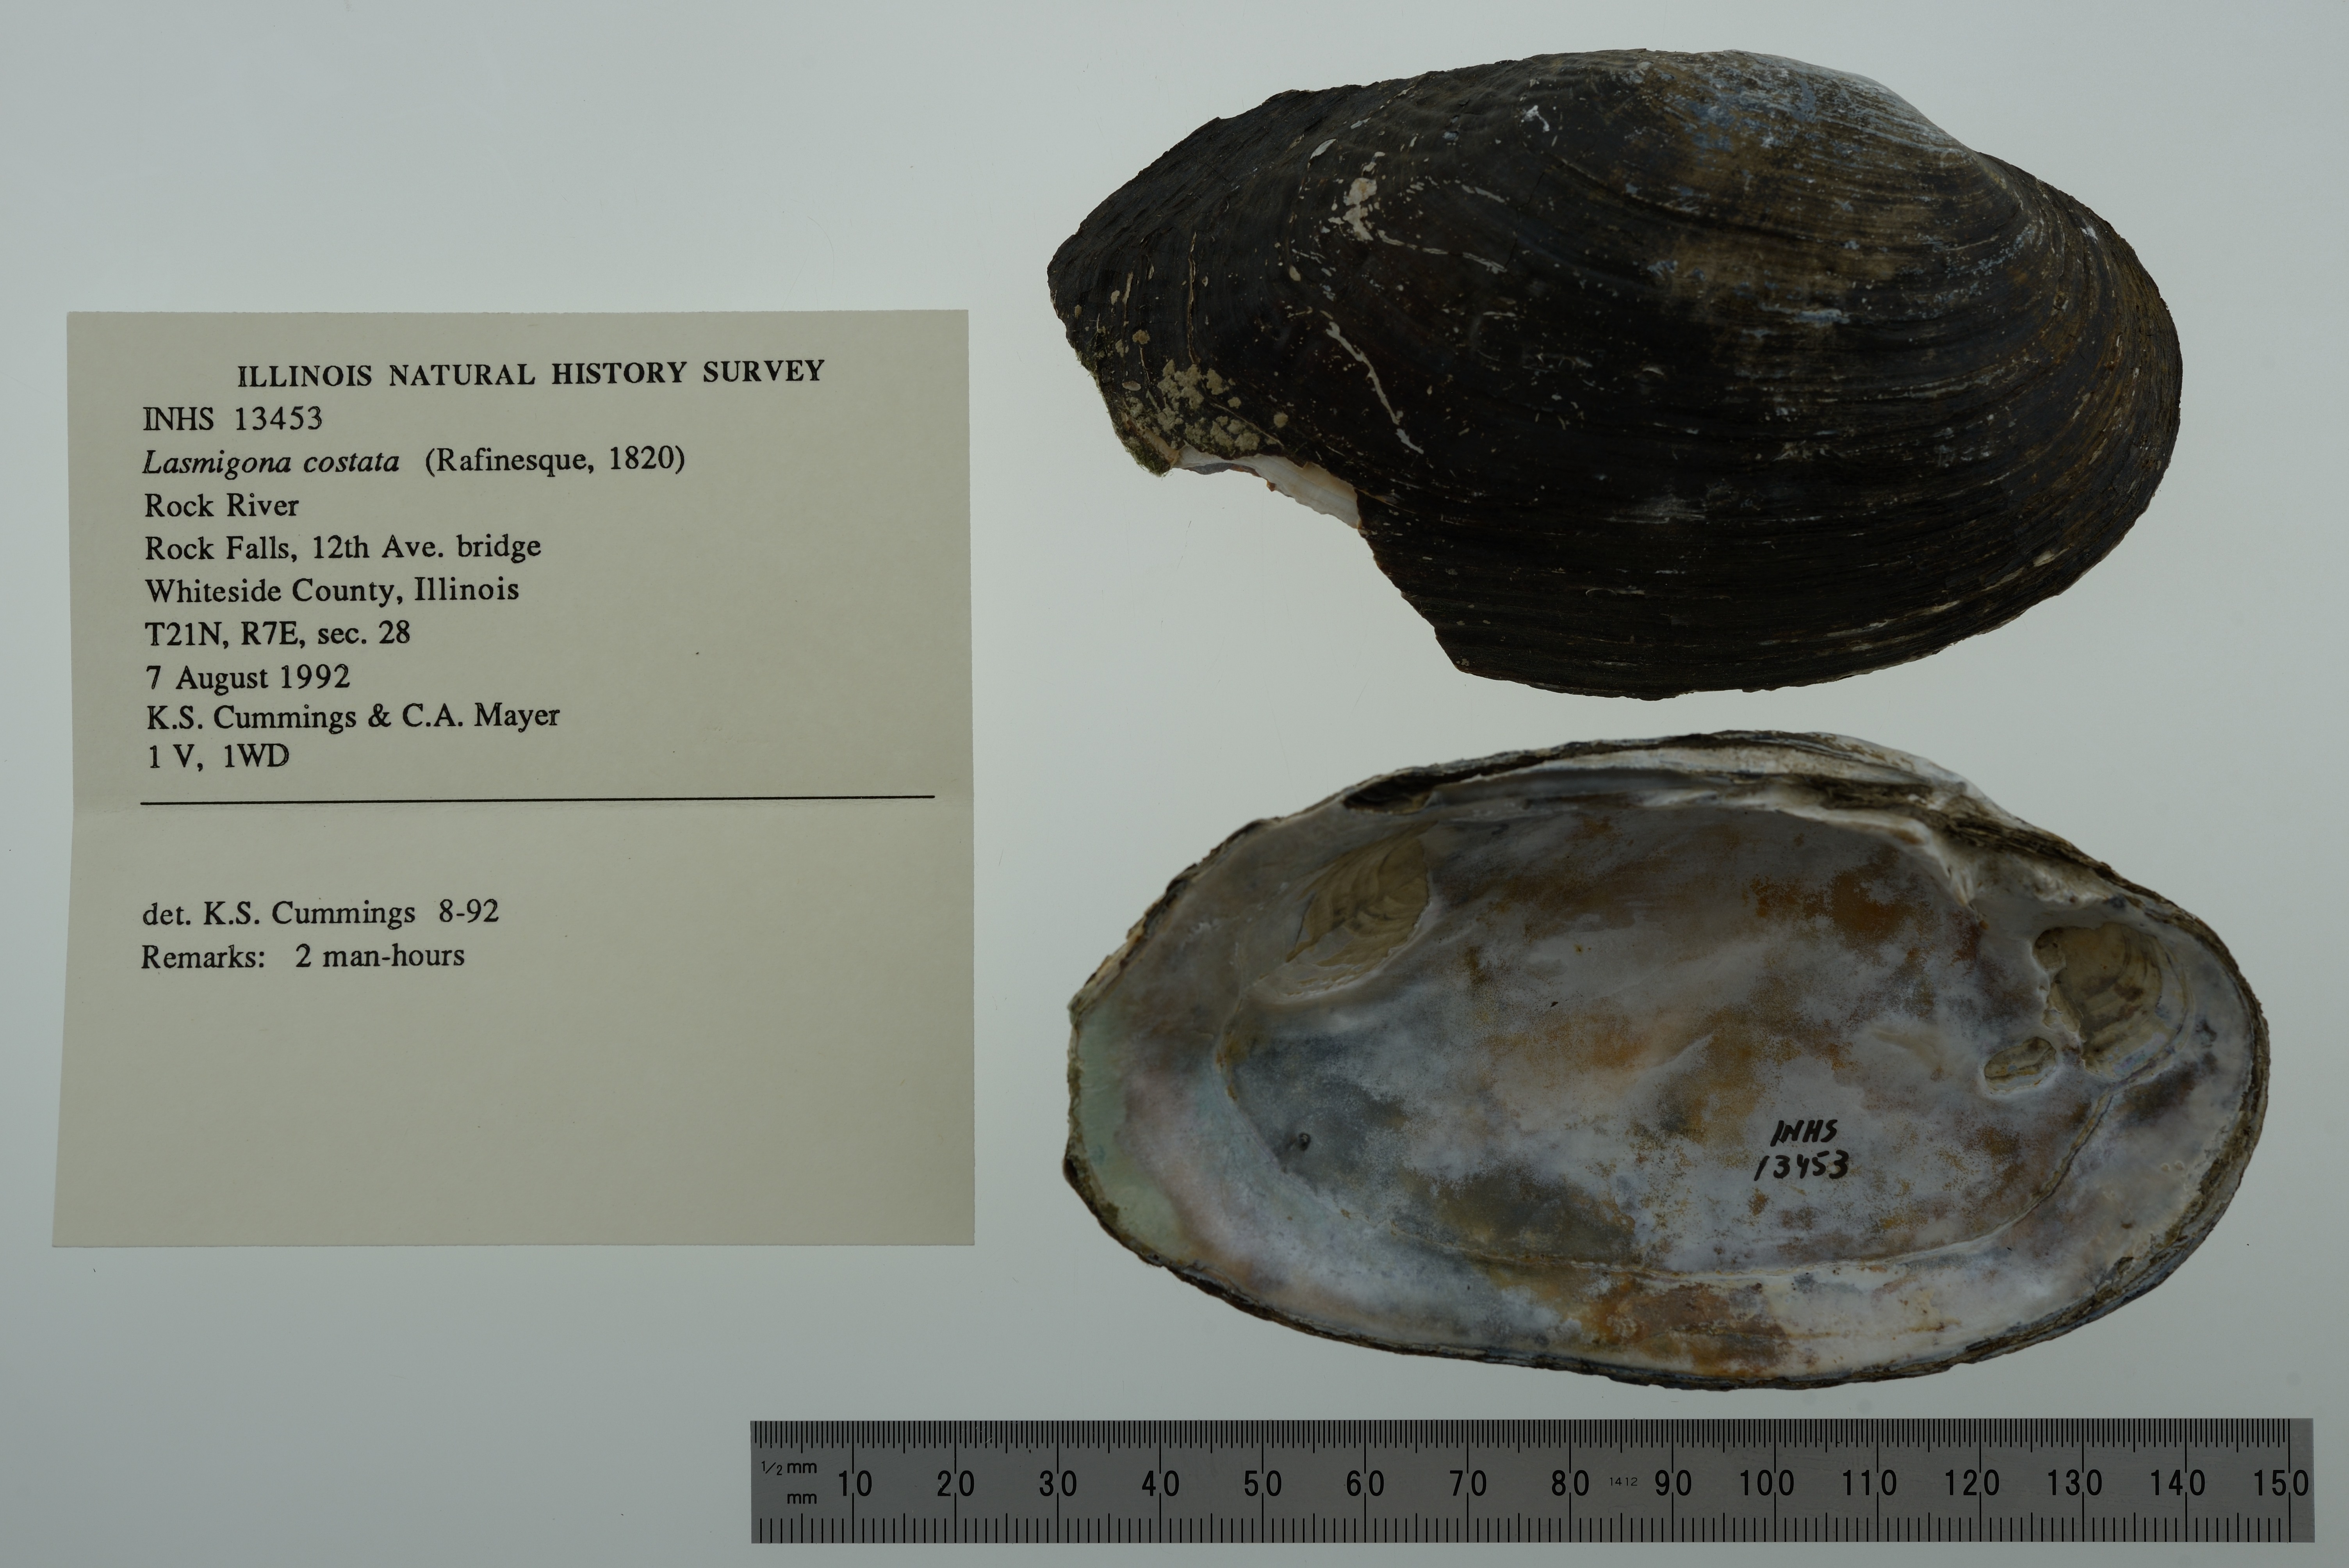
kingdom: Animalia
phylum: Mollusca
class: Bivalvia
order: Unionida
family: Unionidae
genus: Lasmigona
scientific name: Lasmigona costata
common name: Flutedshell
